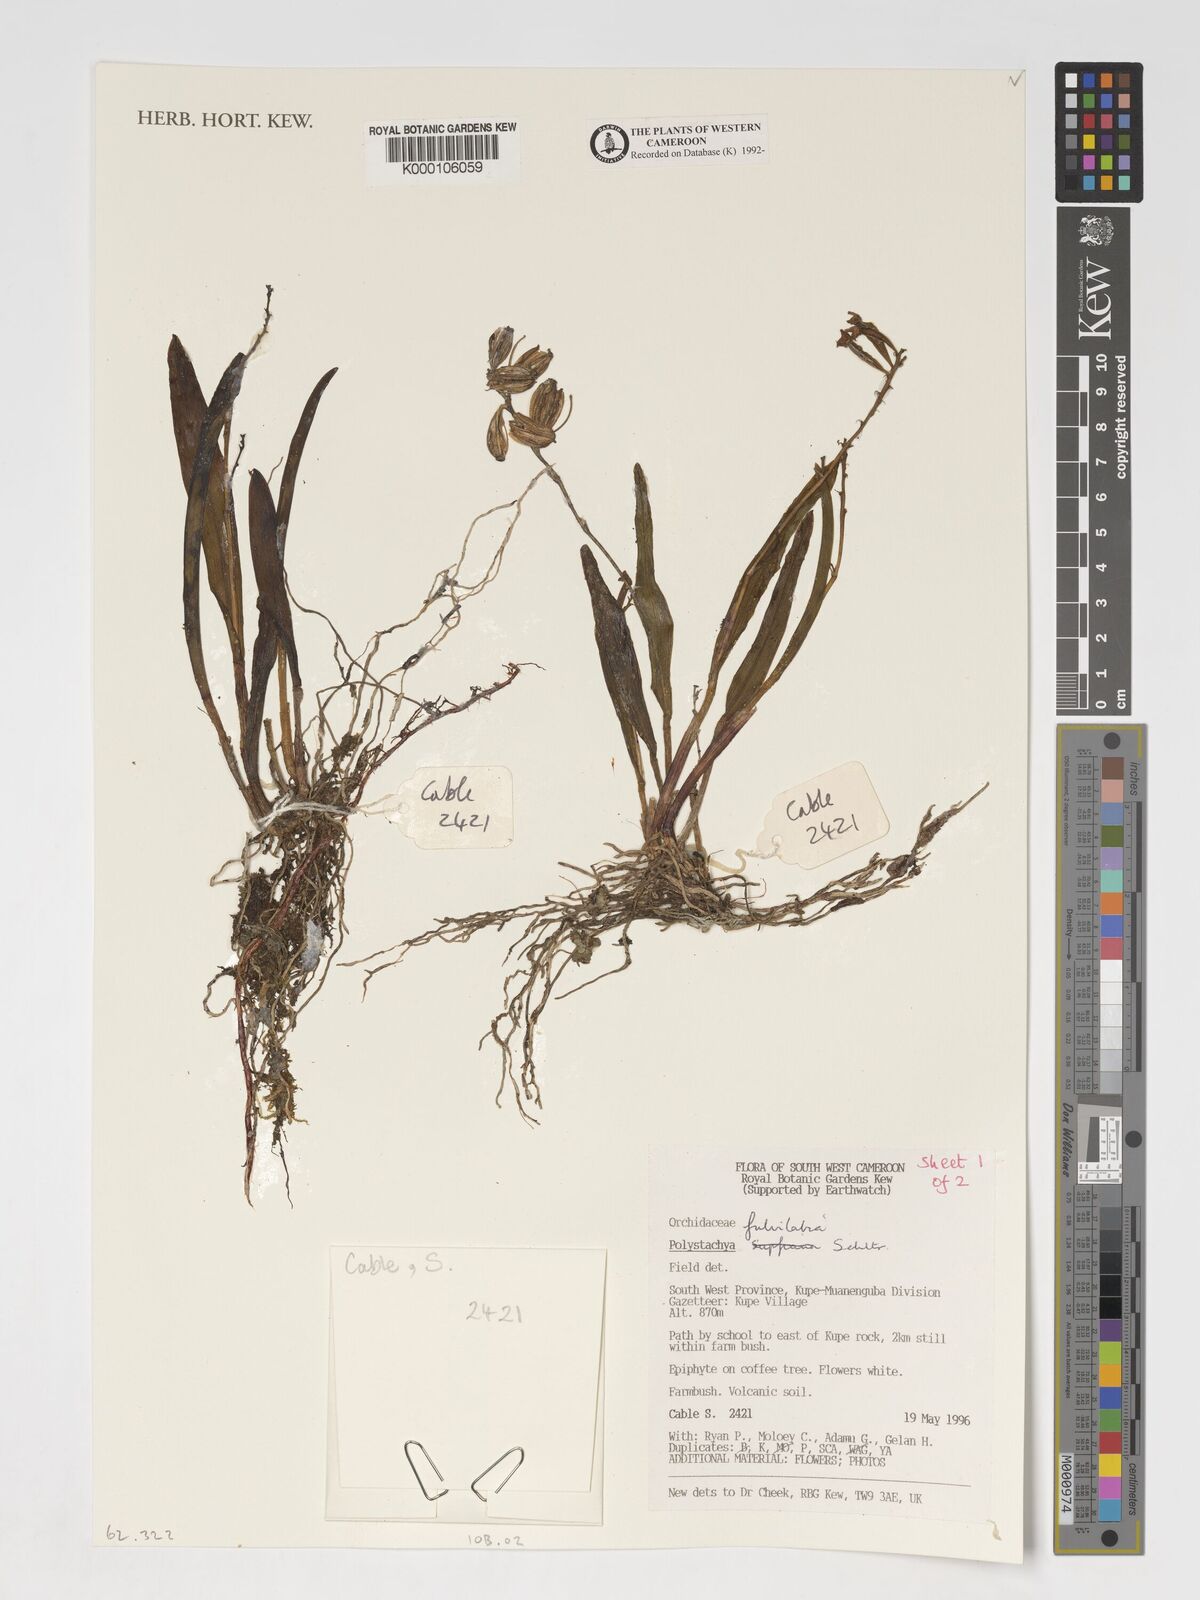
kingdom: Plantae
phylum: Tracheophyta
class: Liliopsida
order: Asparagales
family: Orchidaceae
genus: Polystachya
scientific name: Polystachya fulvilabia
